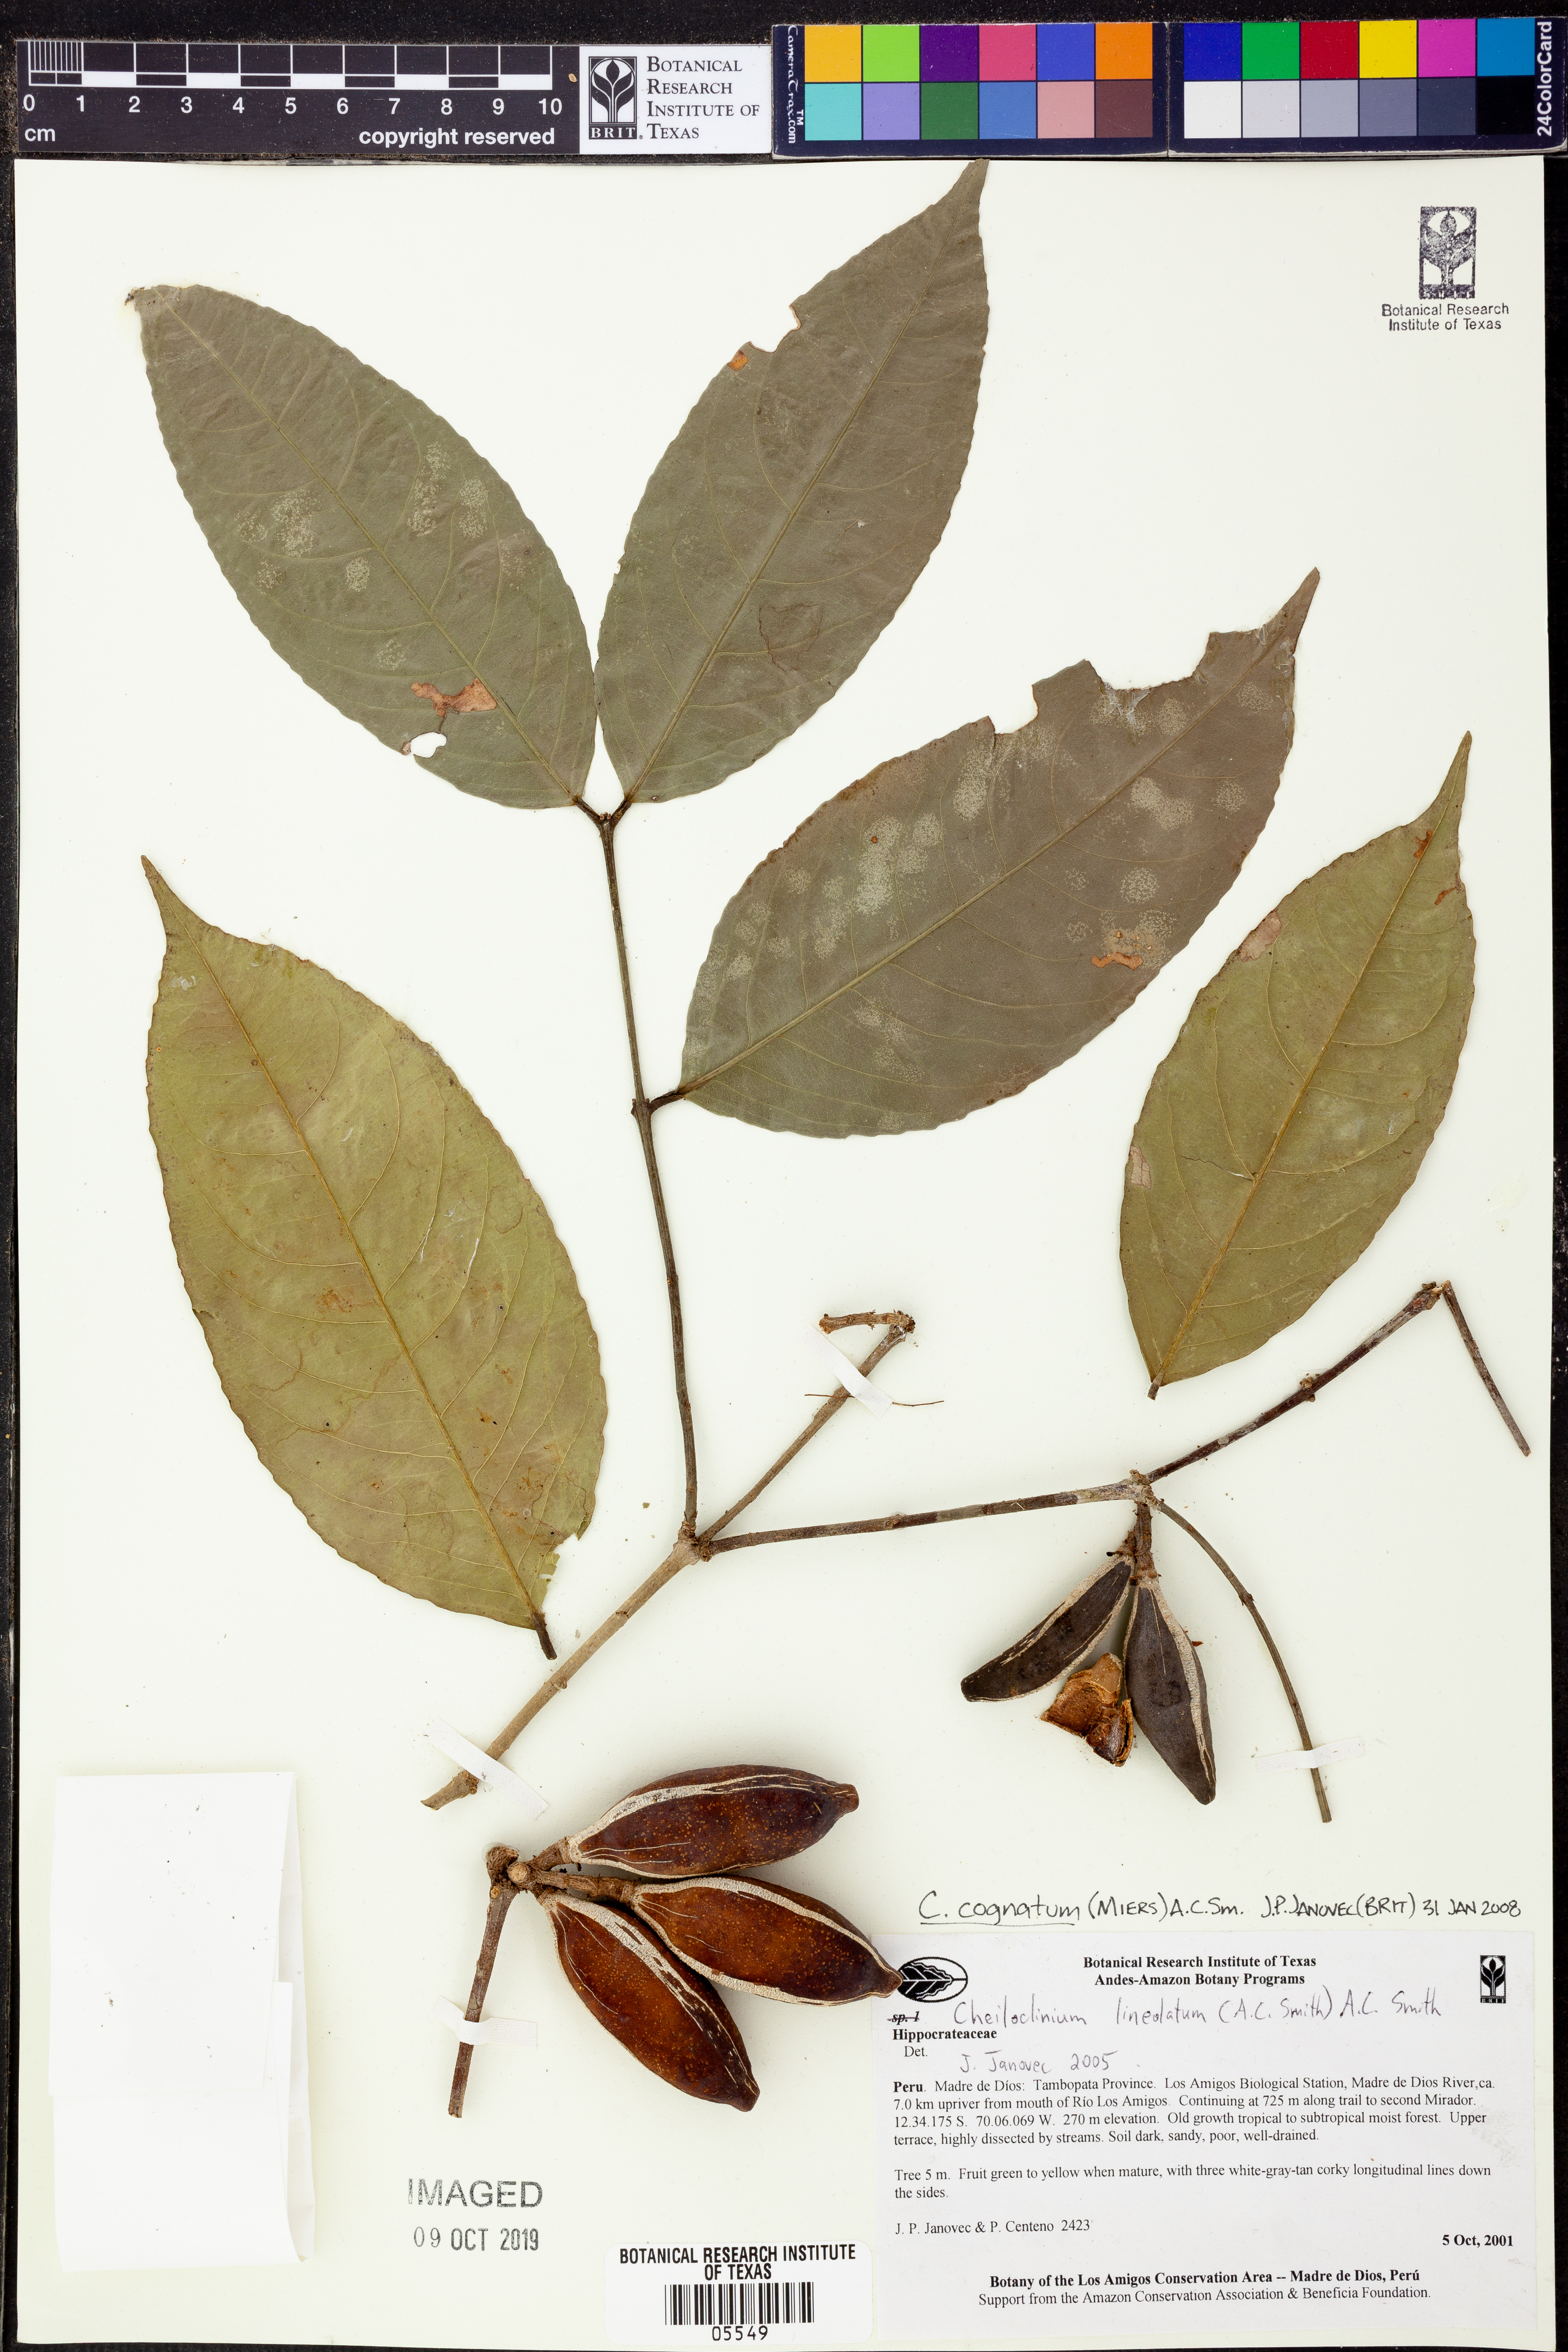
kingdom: Plantae
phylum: Tracheophyta
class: Magnoliopsida
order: Celastrales
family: Celastraceae
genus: Cheiloclinium
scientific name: Cheiloclinium
